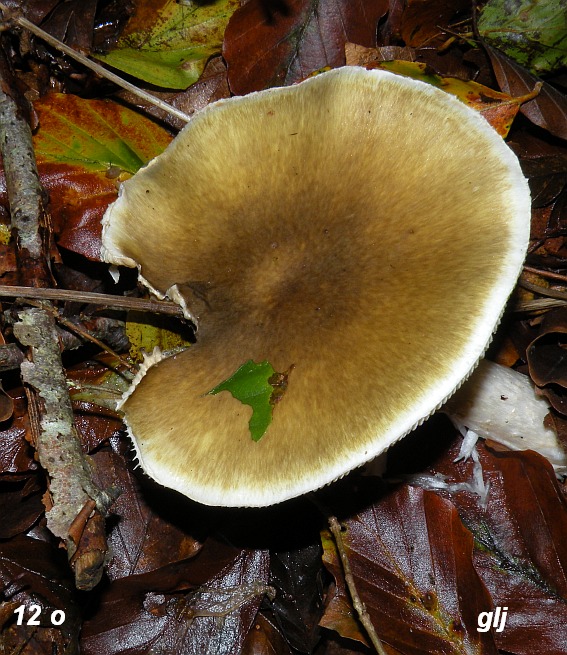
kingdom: Fungi
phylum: Basidiomycota
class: Agaricomycetes
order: Agaricales
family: Amanitaceae
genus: Amanita
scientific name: Amanita phalloides
